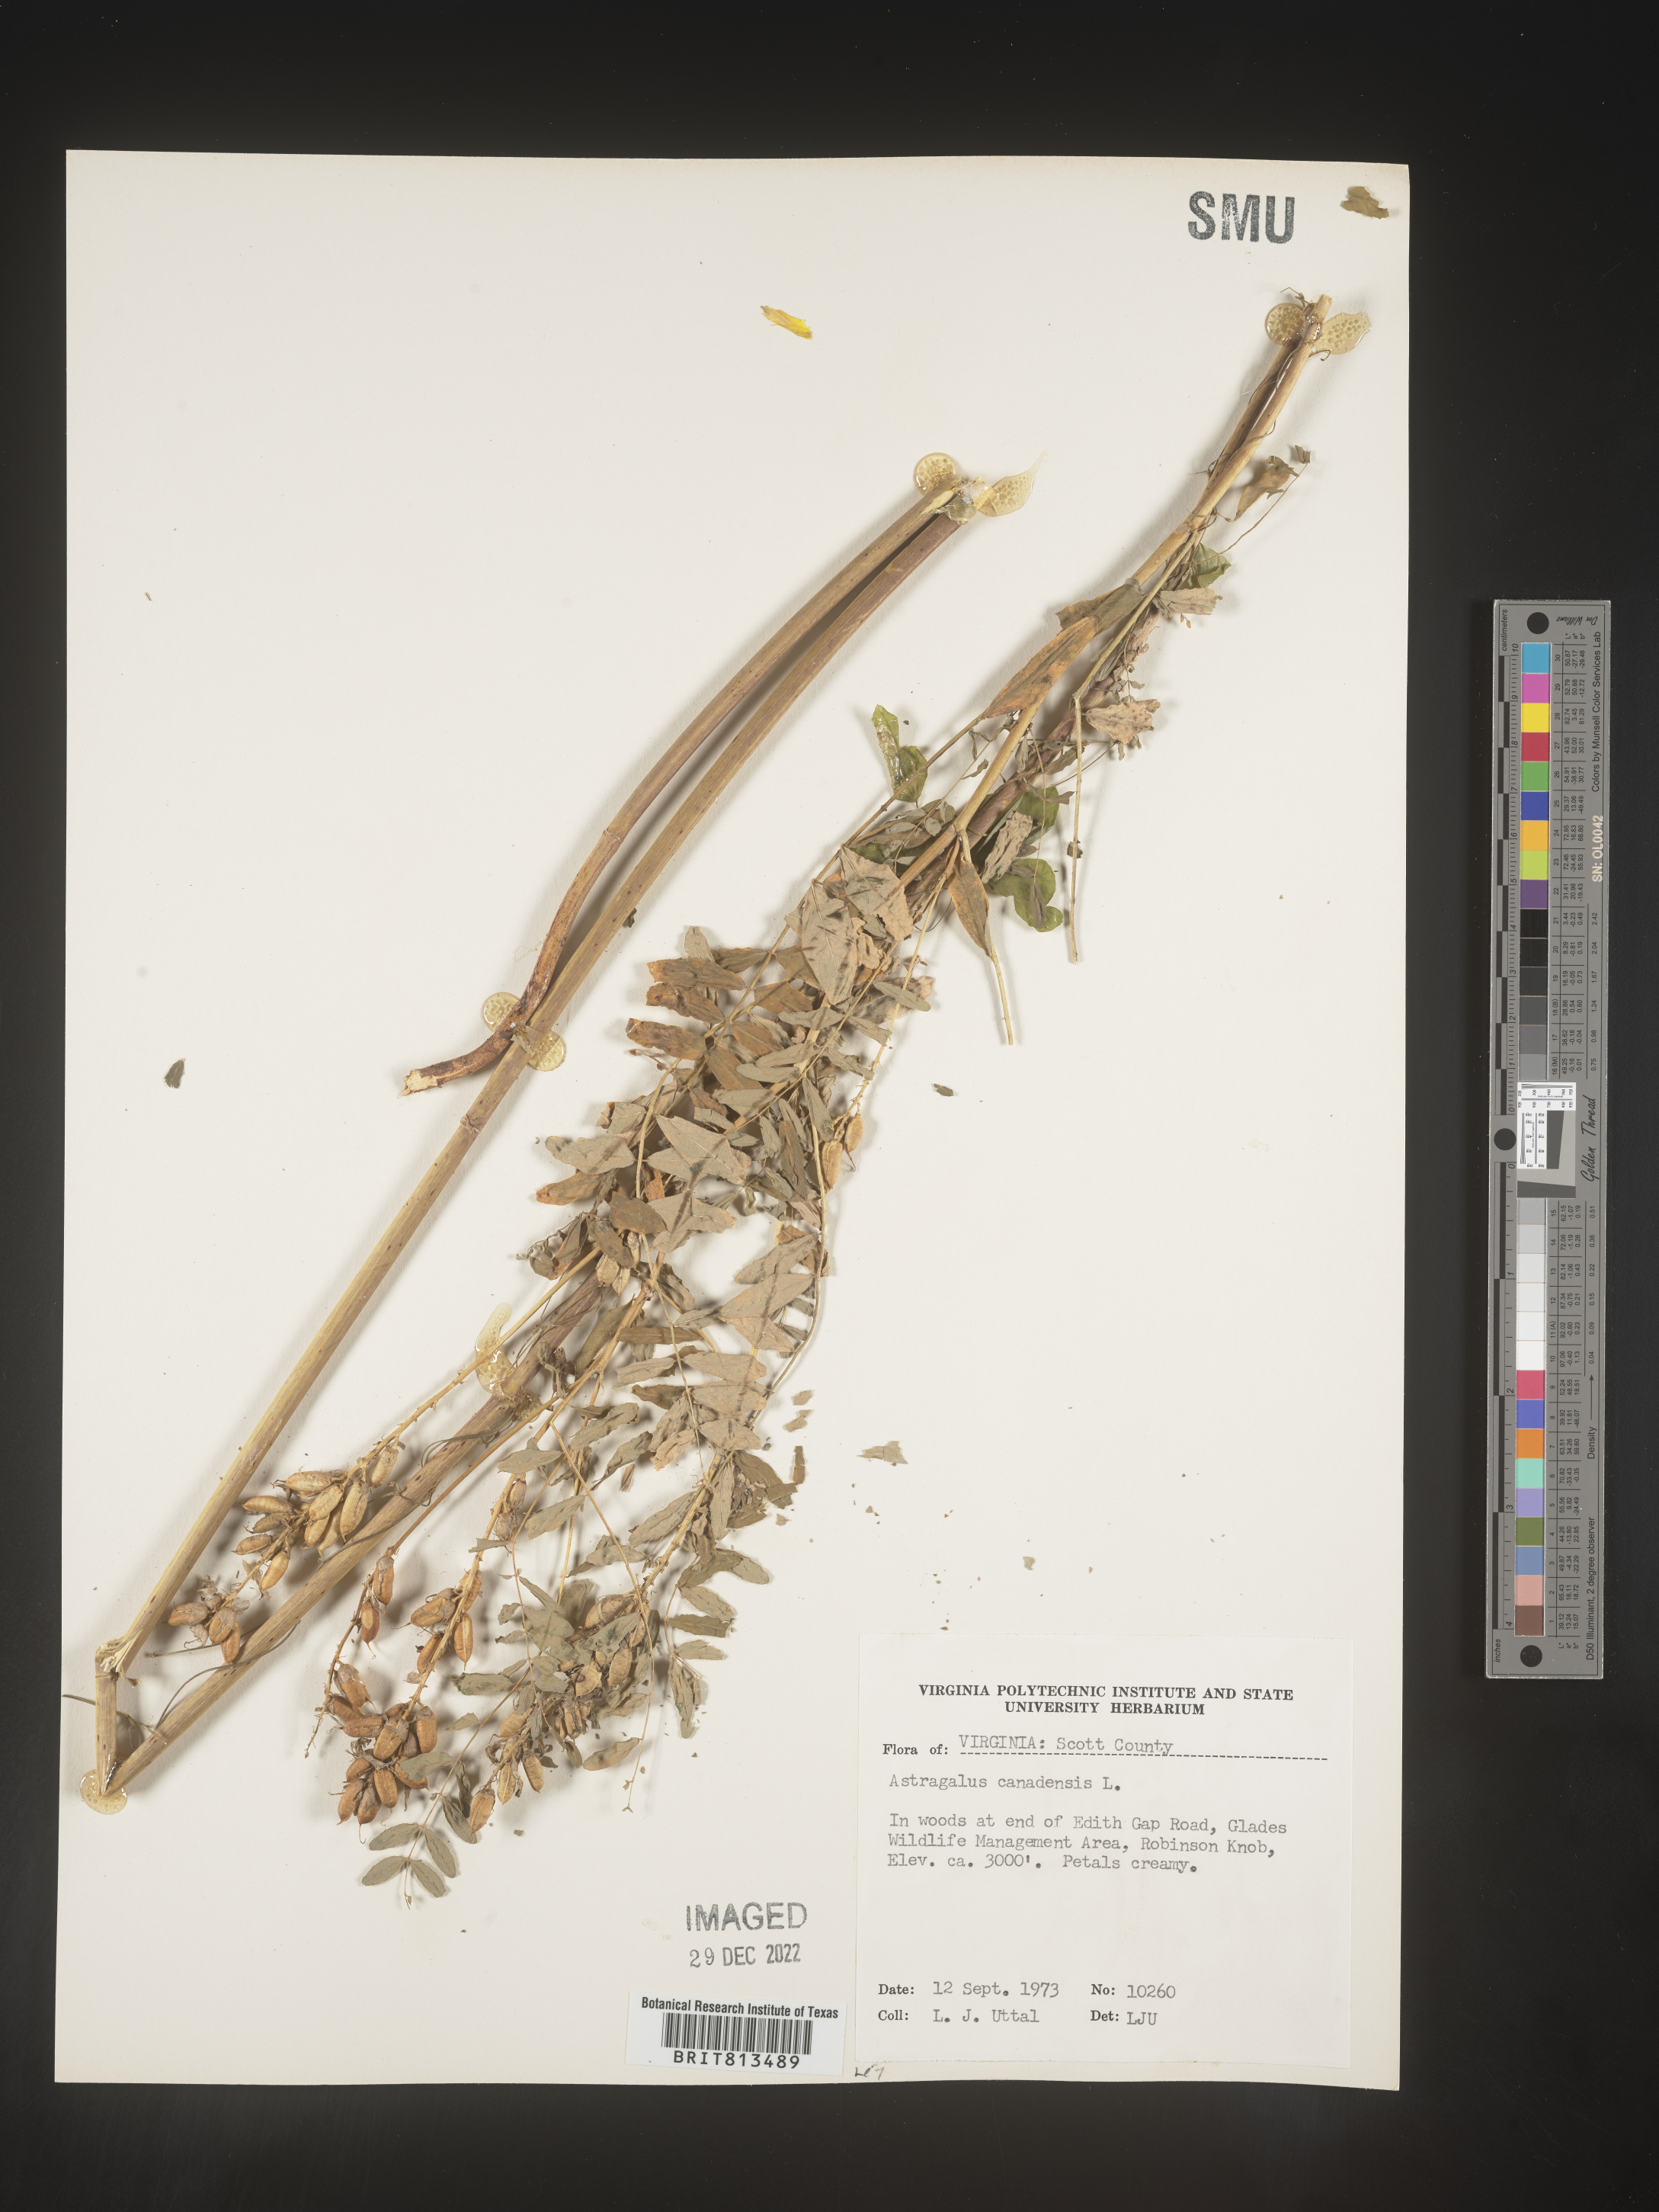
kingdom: Plantae
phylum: Tracheophyta
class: Magnoliopsida
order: Fabales
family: Fabaceae
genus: Astragalus
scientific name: Astragalus canadensis
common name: Canada milk-vetch
